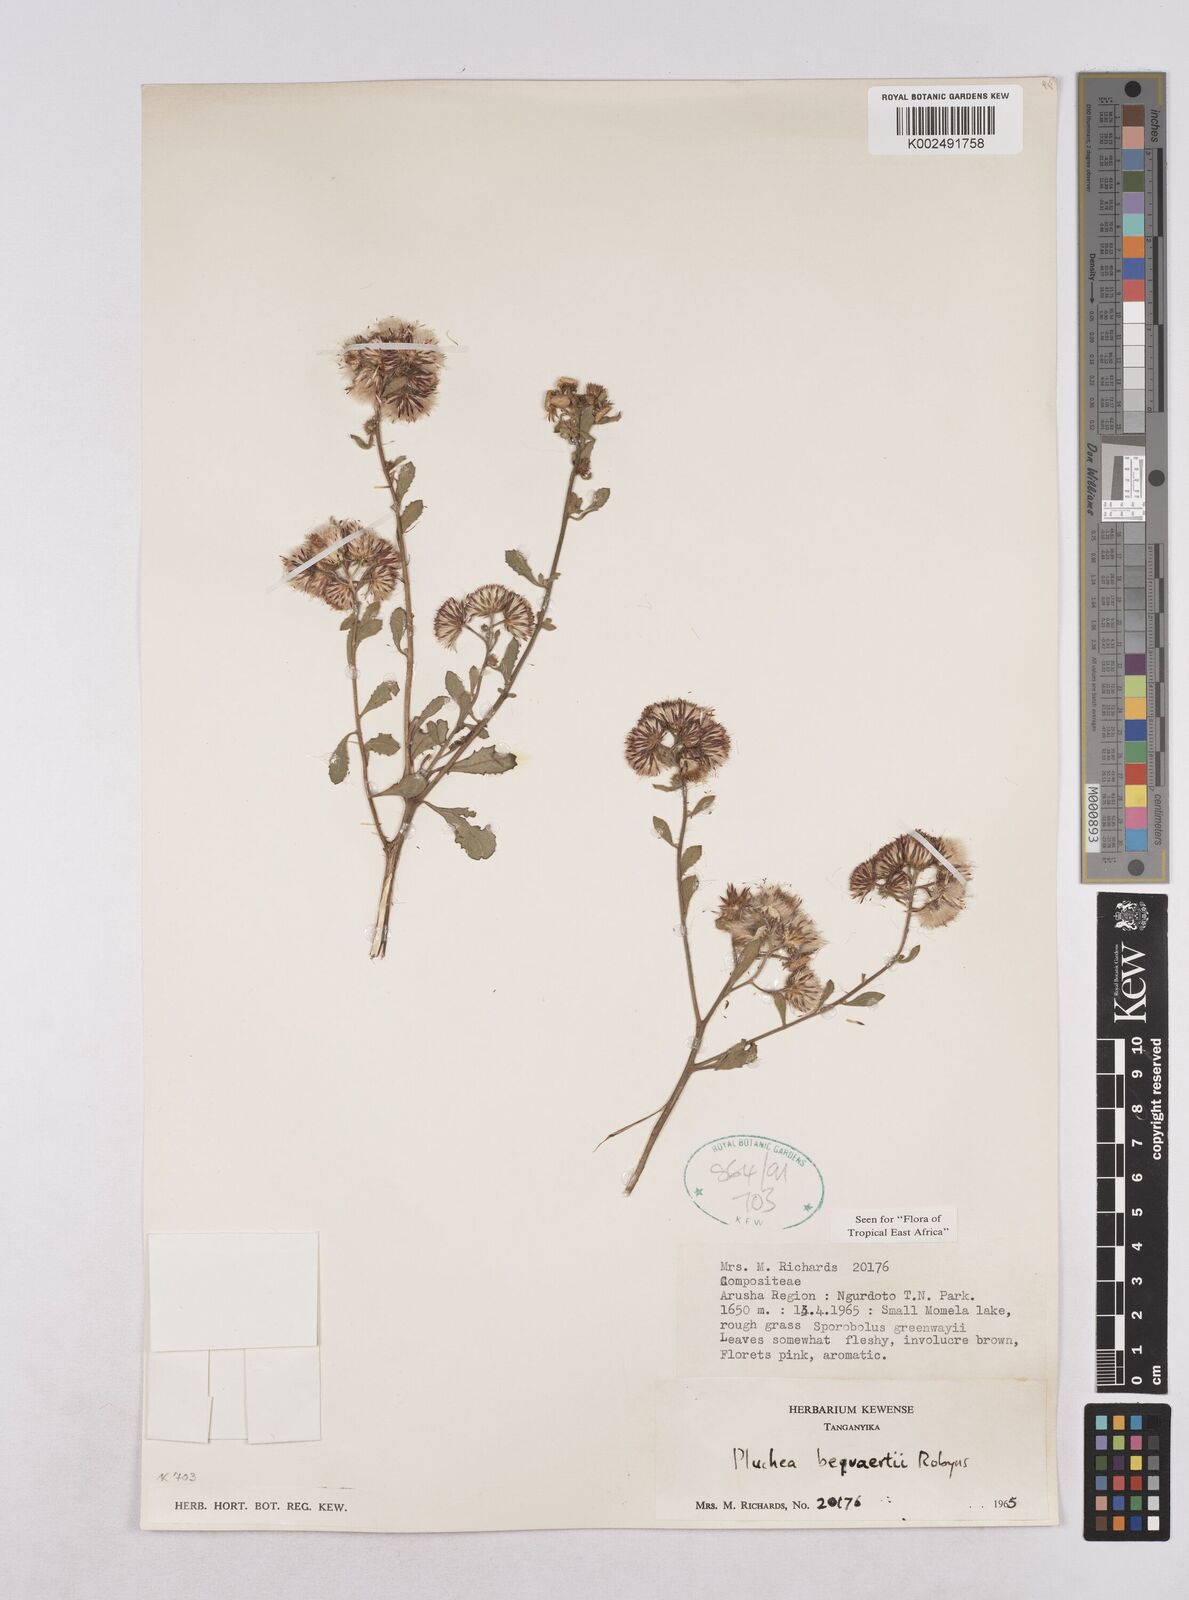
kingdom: Plantae
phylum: Tracheophyta
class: Magnoliopsida
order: Asterales
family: Asteraceae
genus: Pluchea
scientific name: Pluchea sordida
